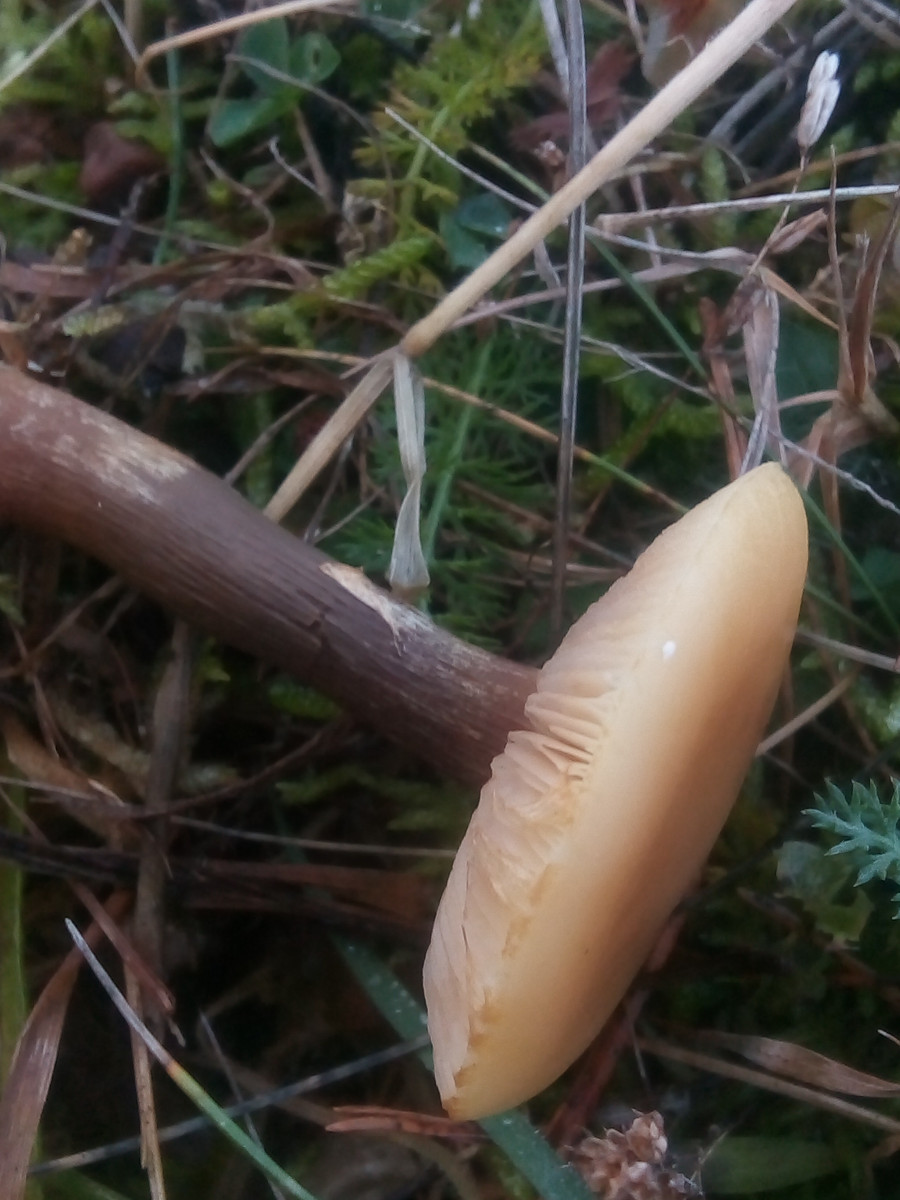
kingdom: Fungi
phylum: Basidiomycota
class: Agaricomycetes
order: Agaricales
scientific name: Agaricales
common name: champignonordenen
